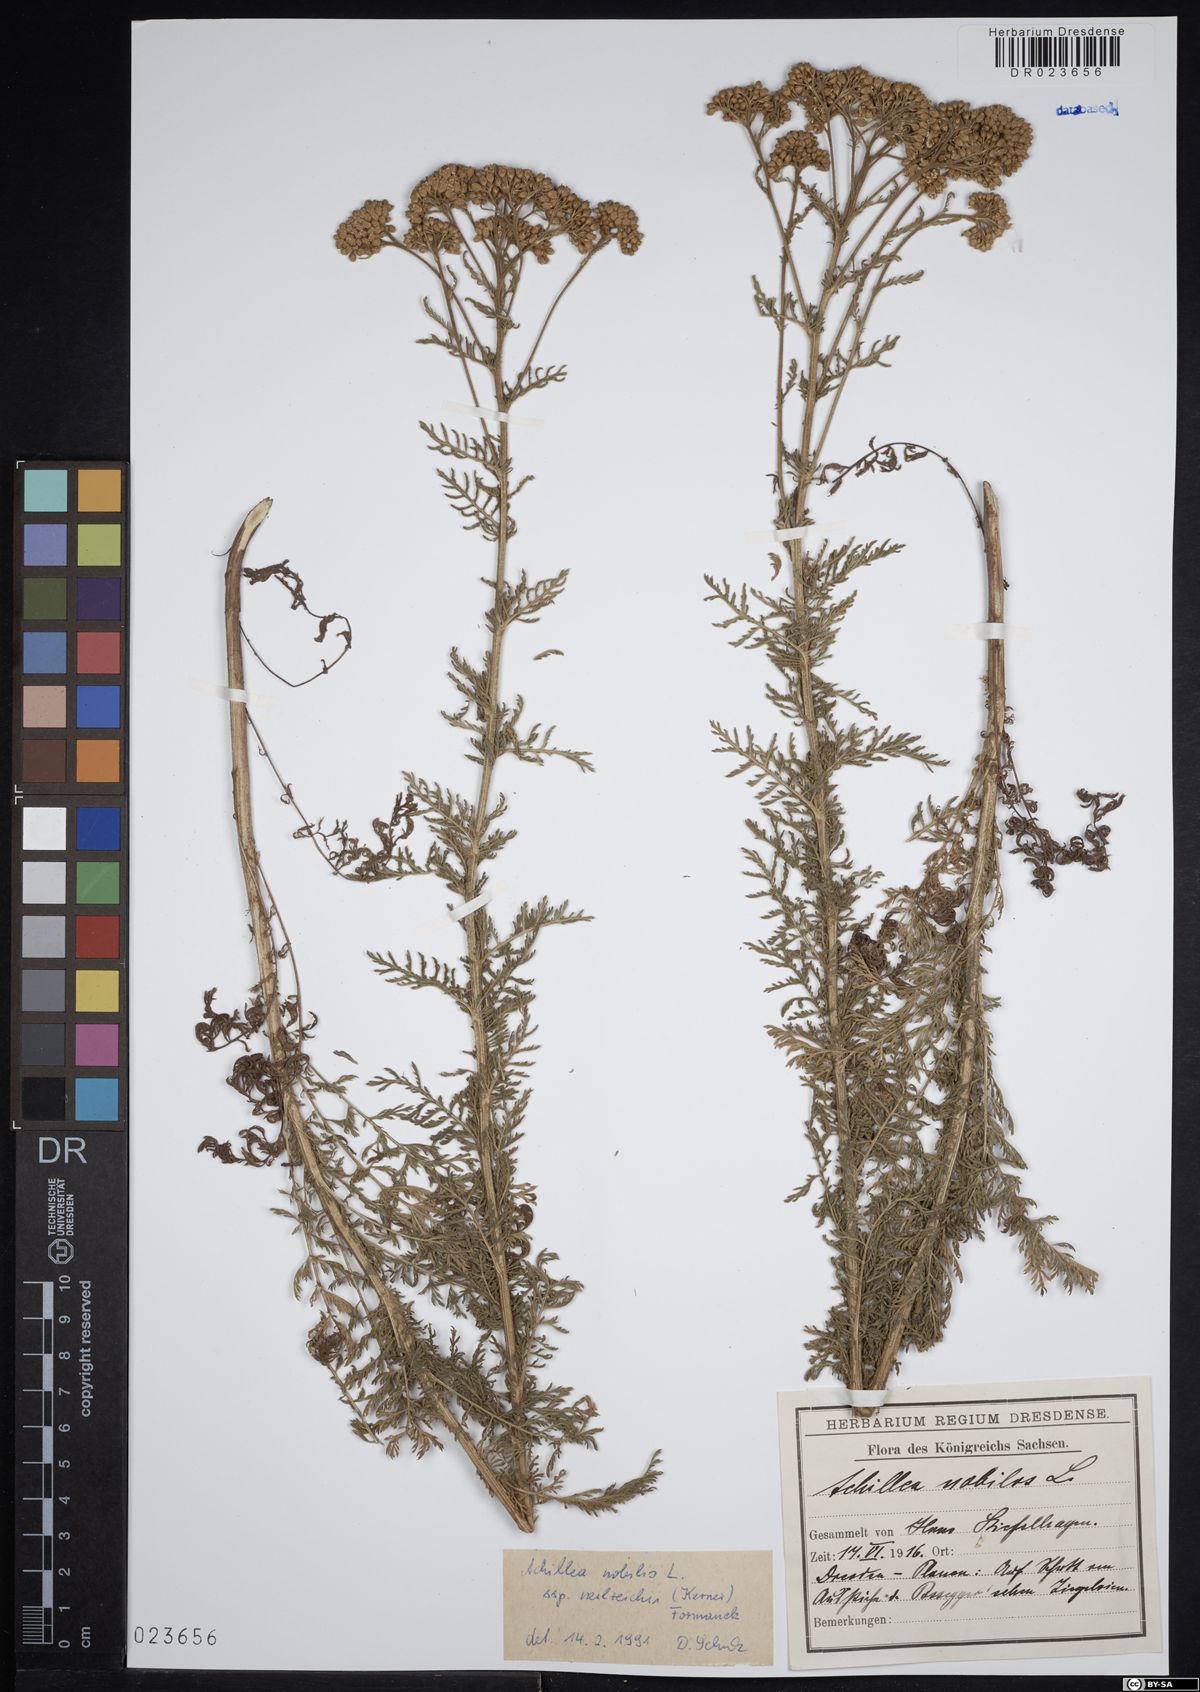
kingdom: Plantae
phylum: Tracheophyta
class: Magnoliopsida
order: Asterales
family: Asteraceae
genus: Achillea
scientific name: Achillea nobilis
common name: Noble yarrow
